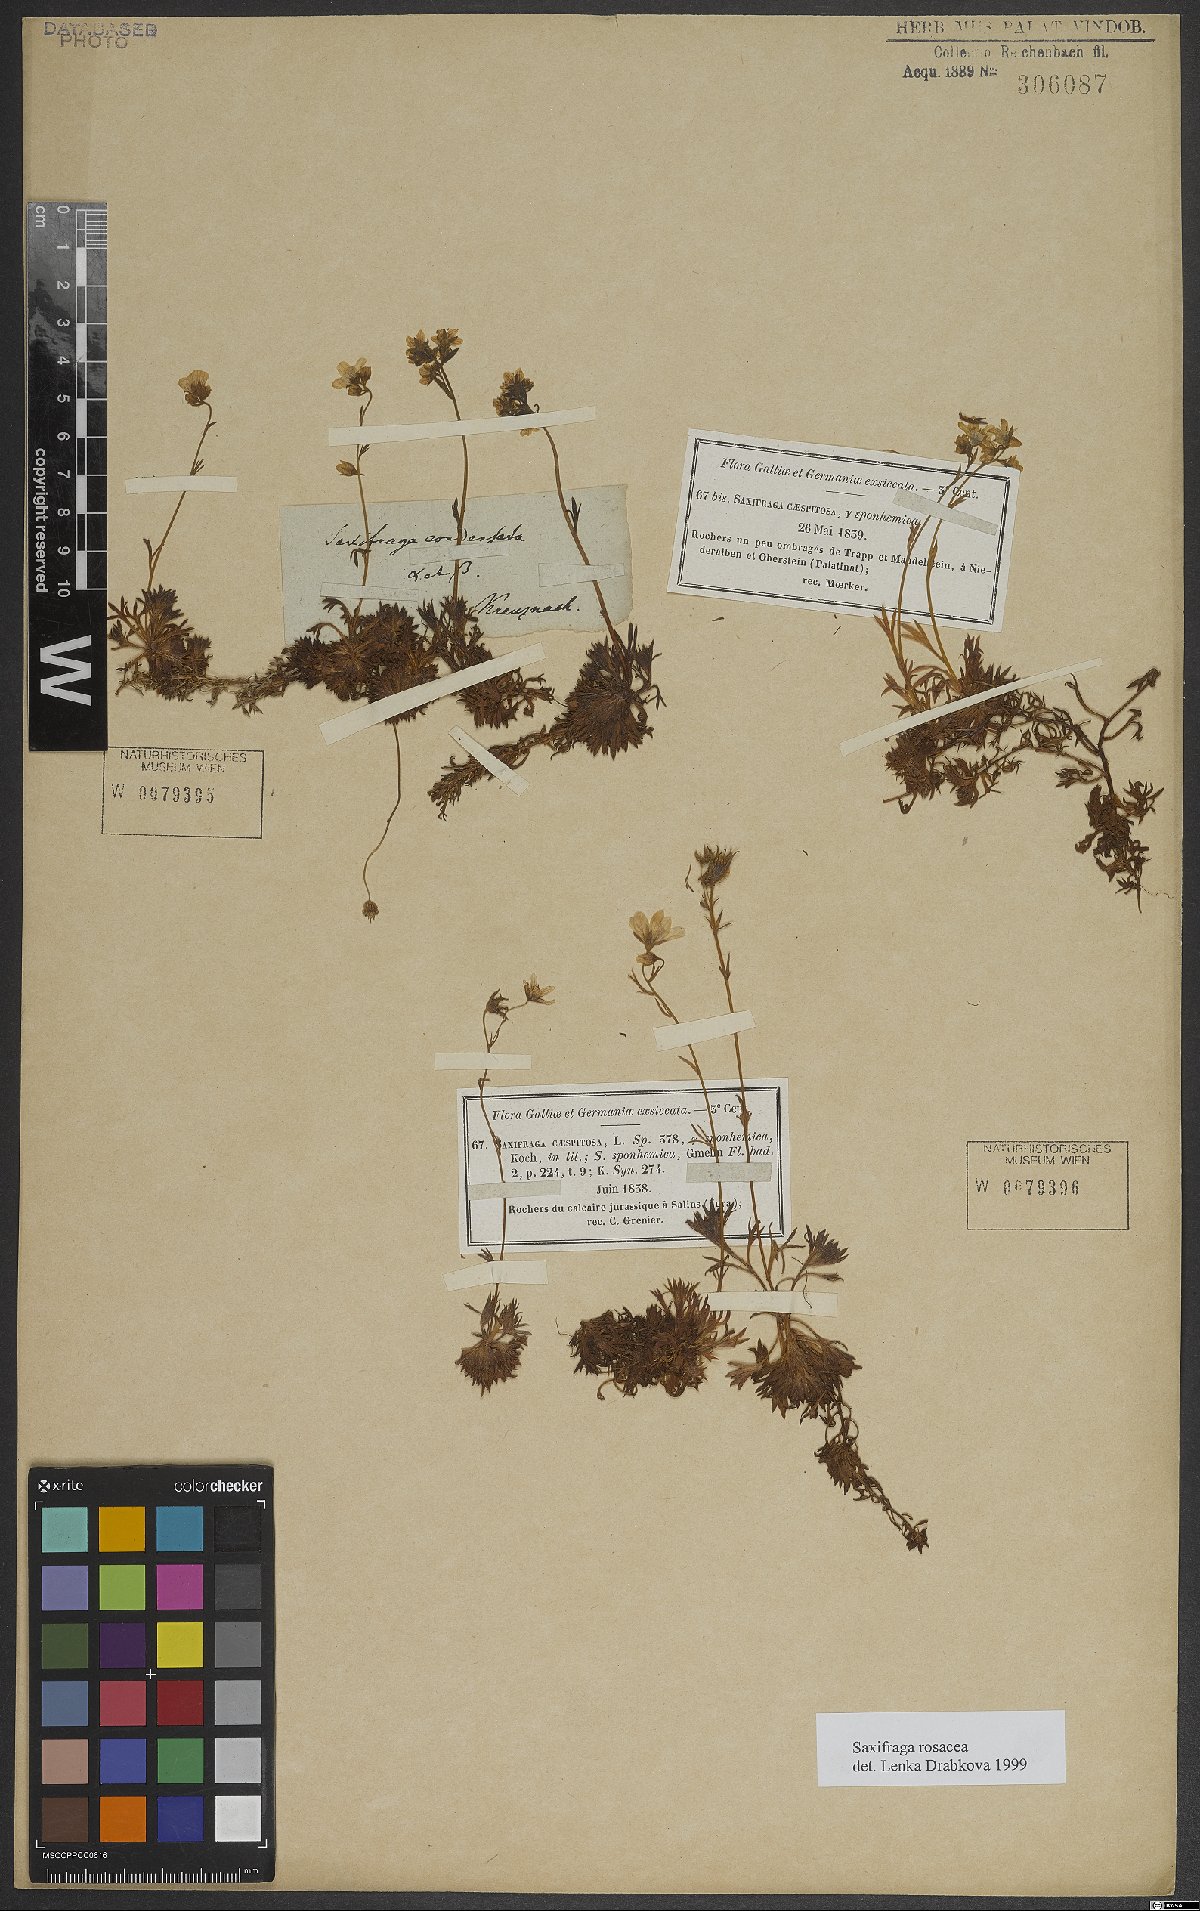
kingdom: Plantae
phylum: Tracheophyta
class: Magnoliopsida
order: Saxifragales
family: Saxifragaceae
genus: Saxifraga
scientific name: Saxifraga rosacea
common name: Irish saxifrage
